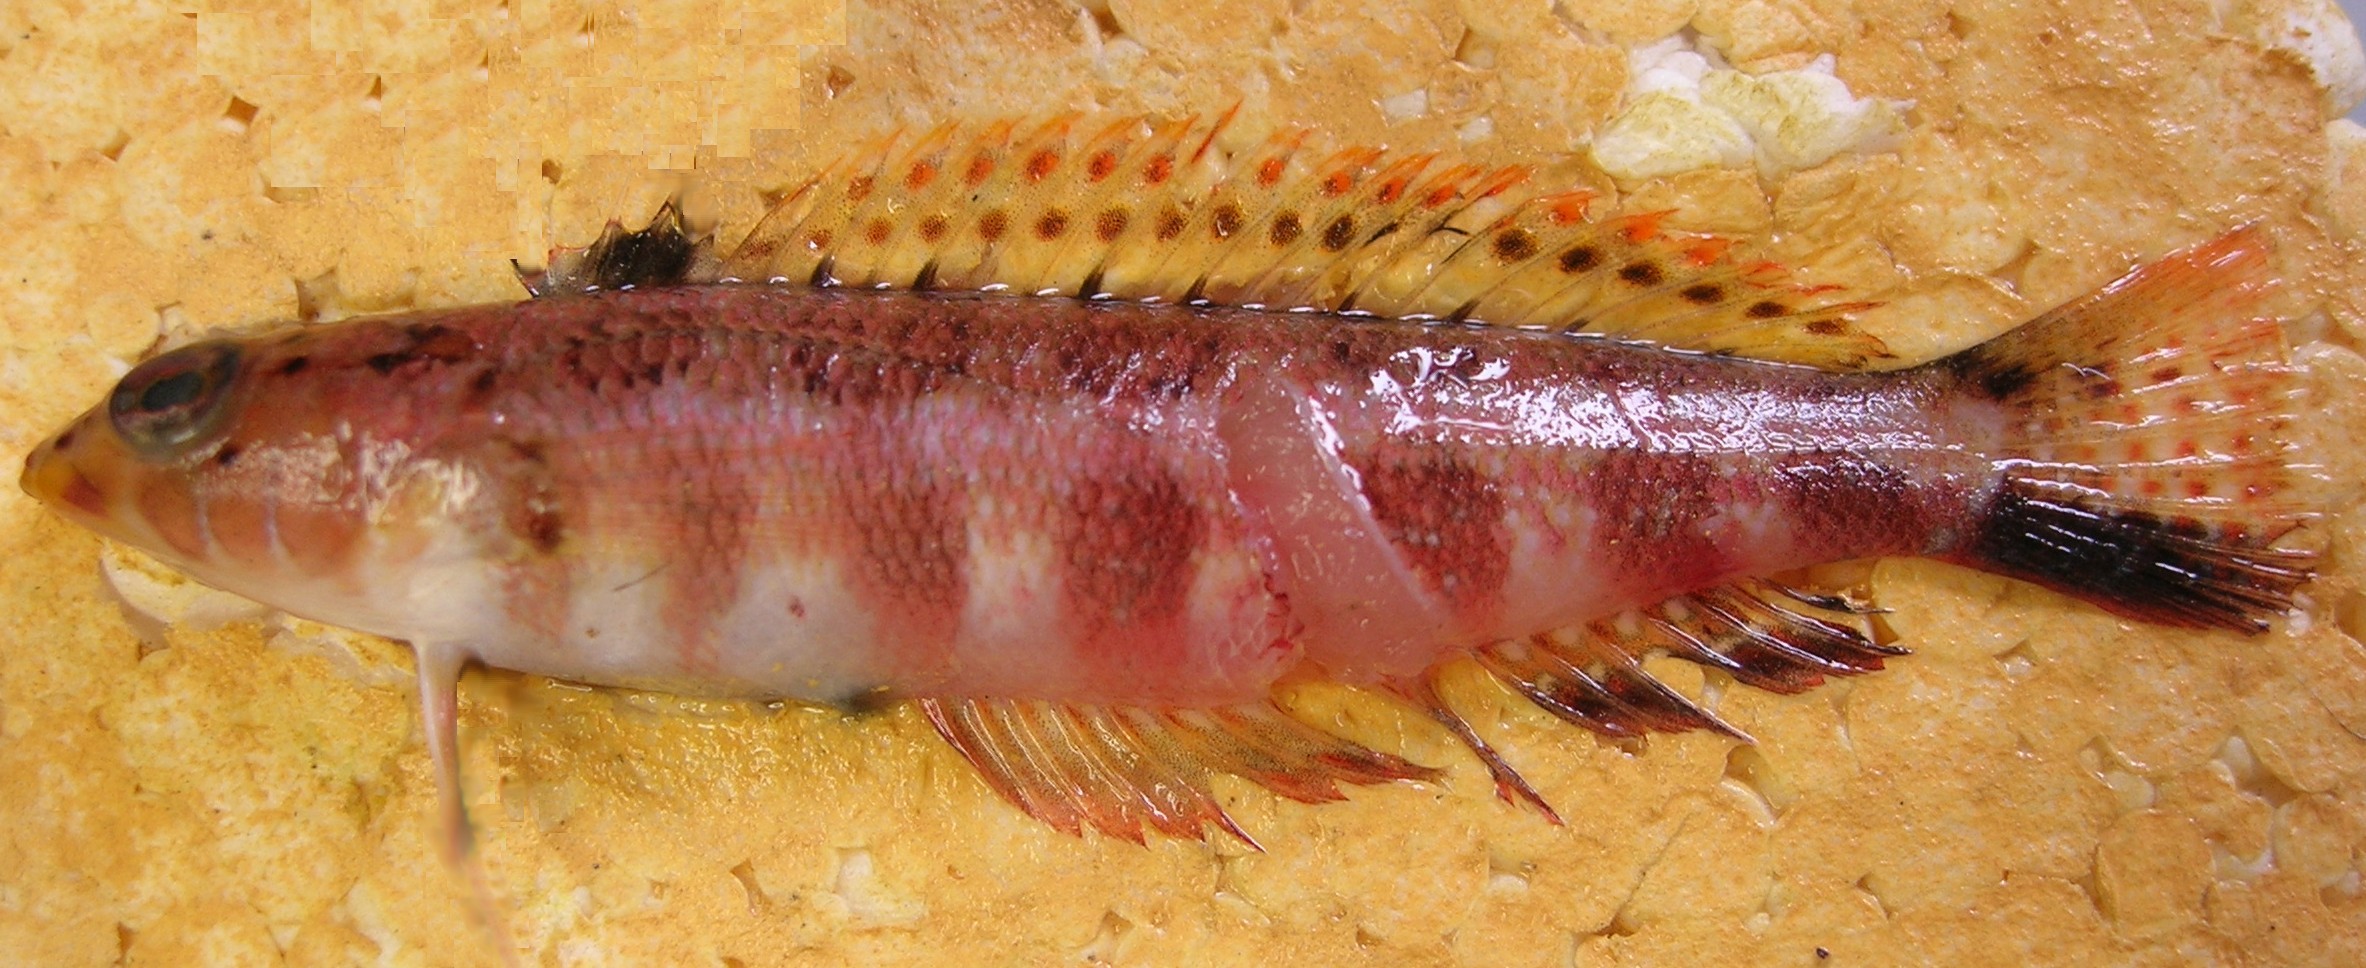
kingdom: Animalia
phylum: Chordata
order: Perciformes
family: Pinguipedidae
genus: Parapercis
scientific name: Parapercis maculata
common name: Harlequin sandperch
